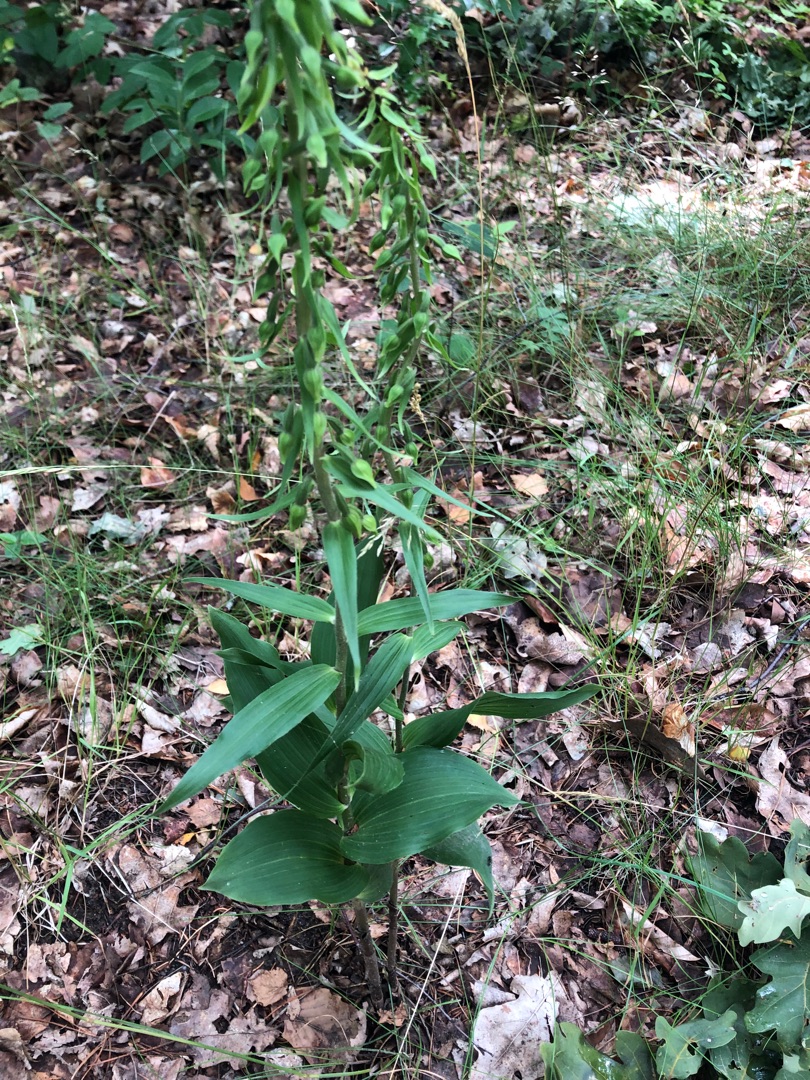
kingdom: Plantae
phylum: Tracheophyta
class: Liliopsida
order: Asparagales
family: Orchidaceae
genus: Epipactis
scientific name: Epipactis helleborine
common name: Skov-hullæbe
